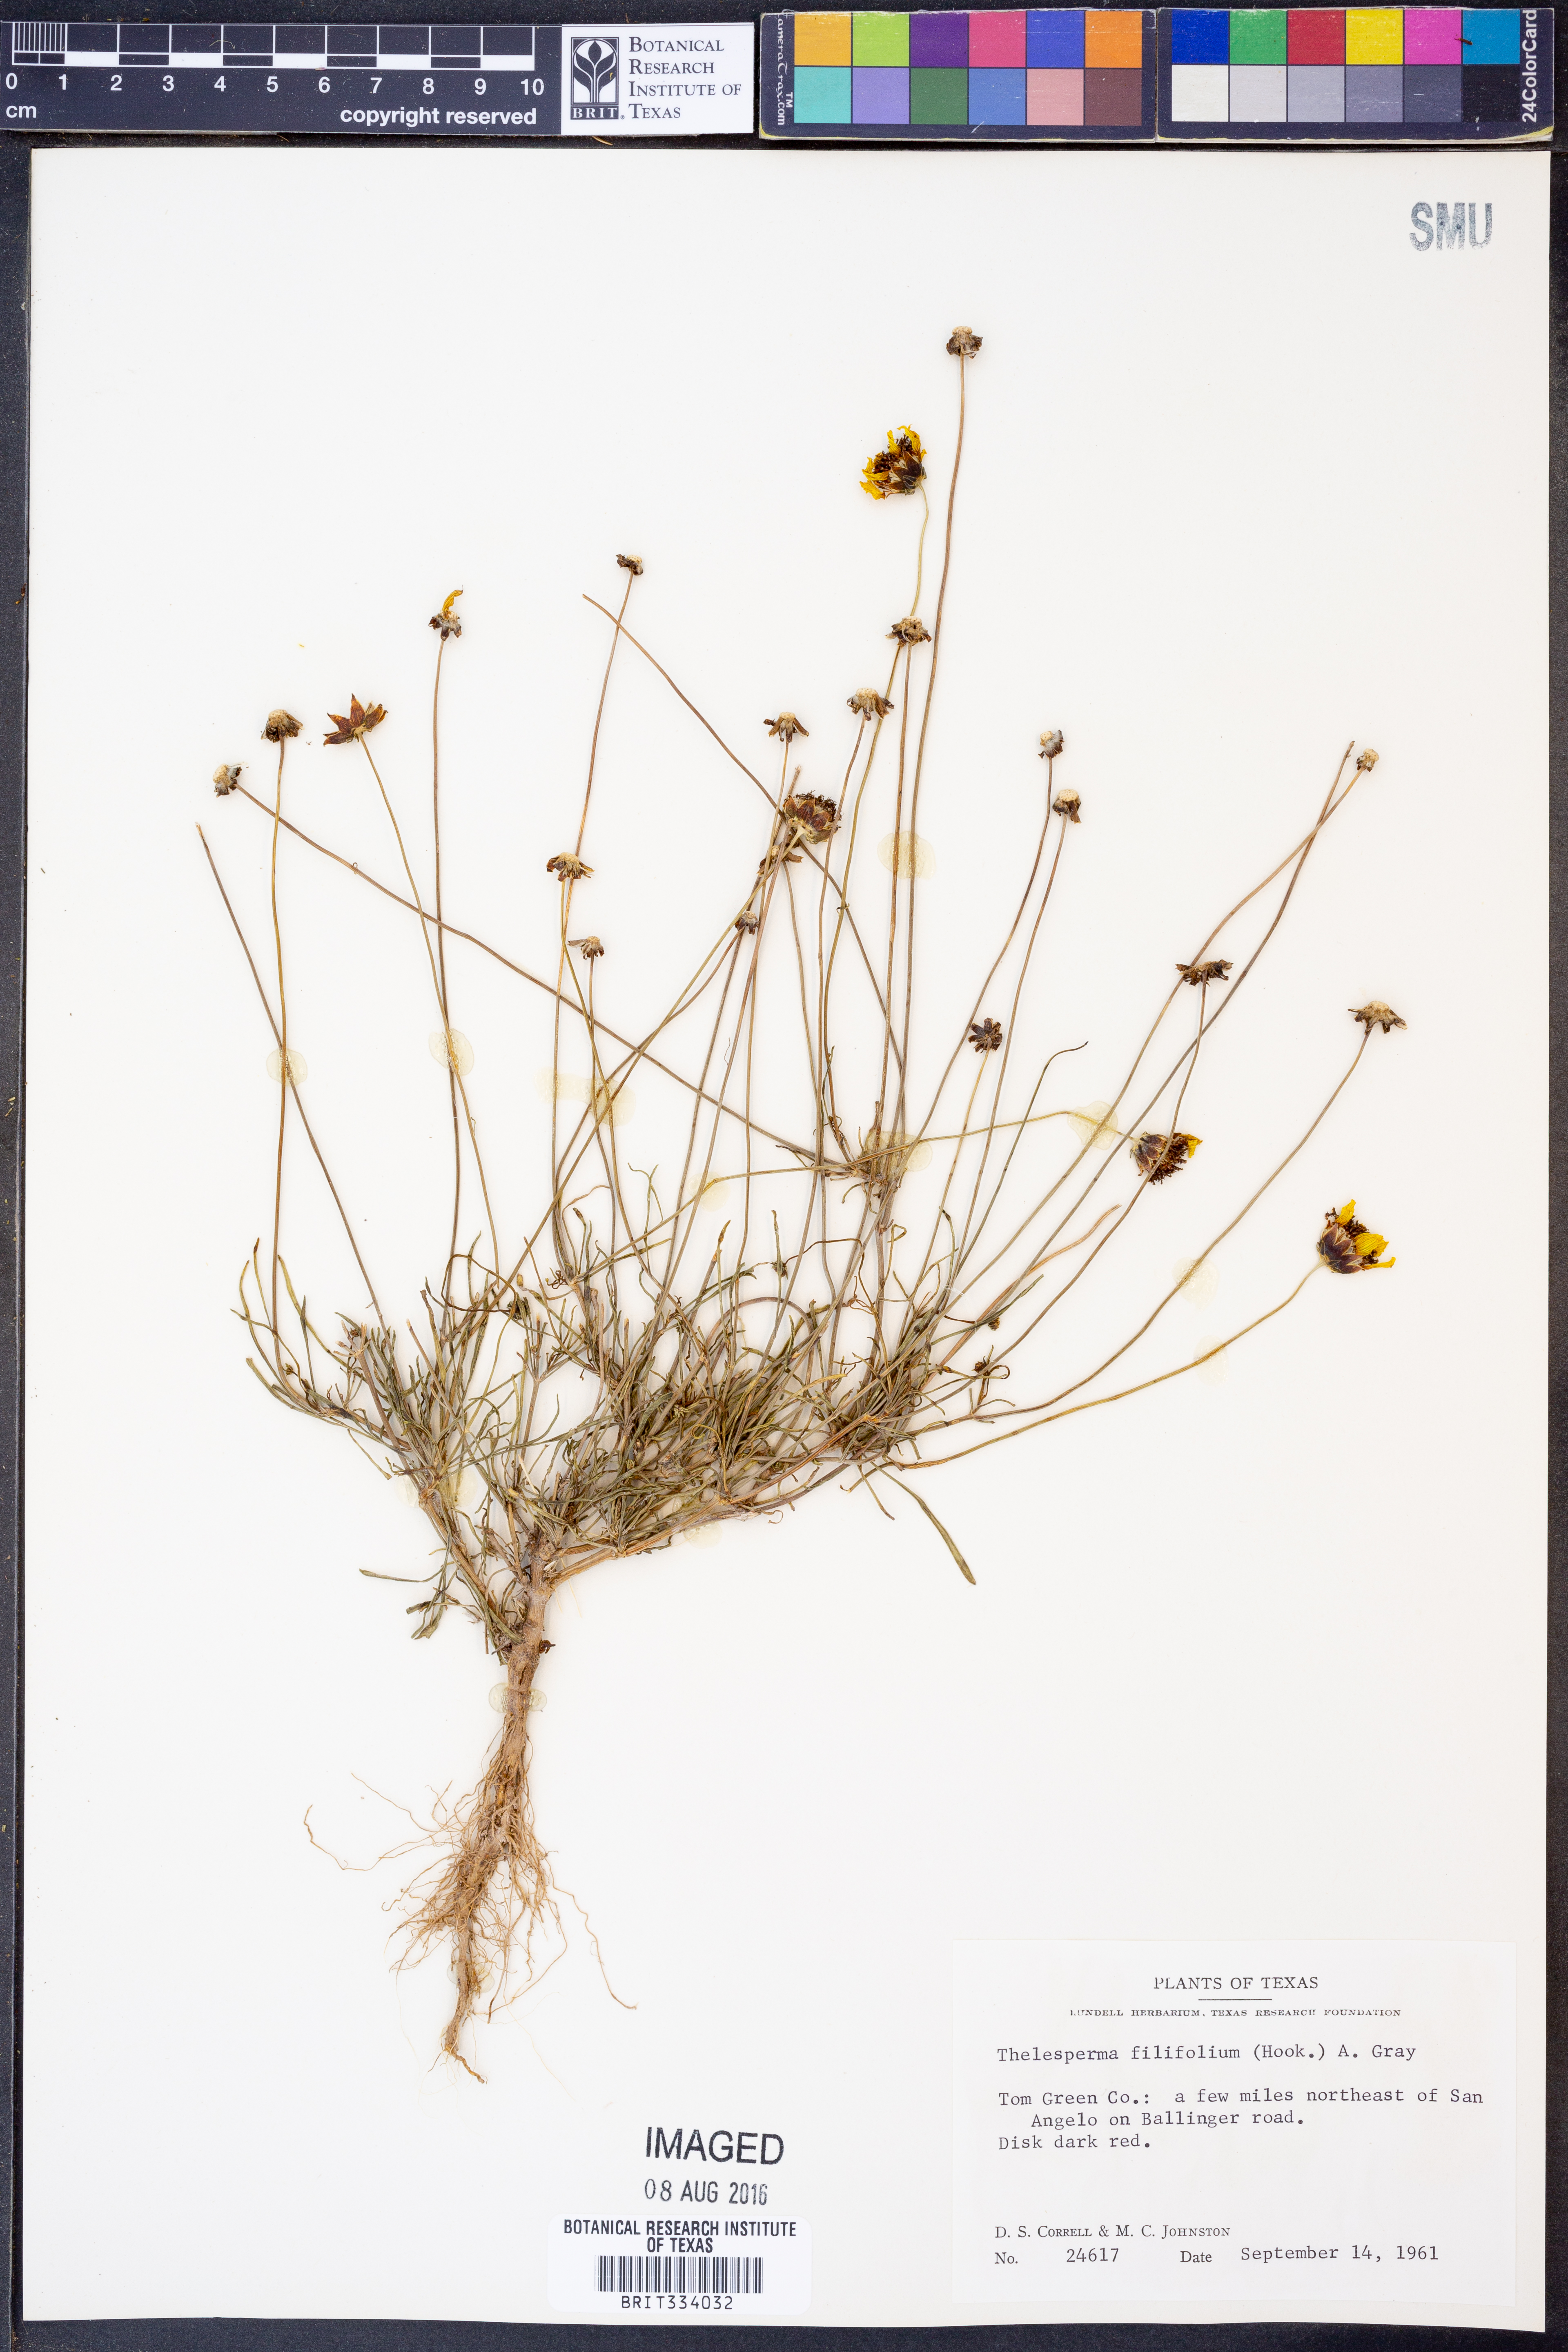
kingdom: Plantae
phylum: Tracheophyta
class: Magnoliopsida
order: Asterales
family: Asteraceae
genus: Thelesperma
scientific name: Thelesperma filifolium
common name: Stiff greenthread
